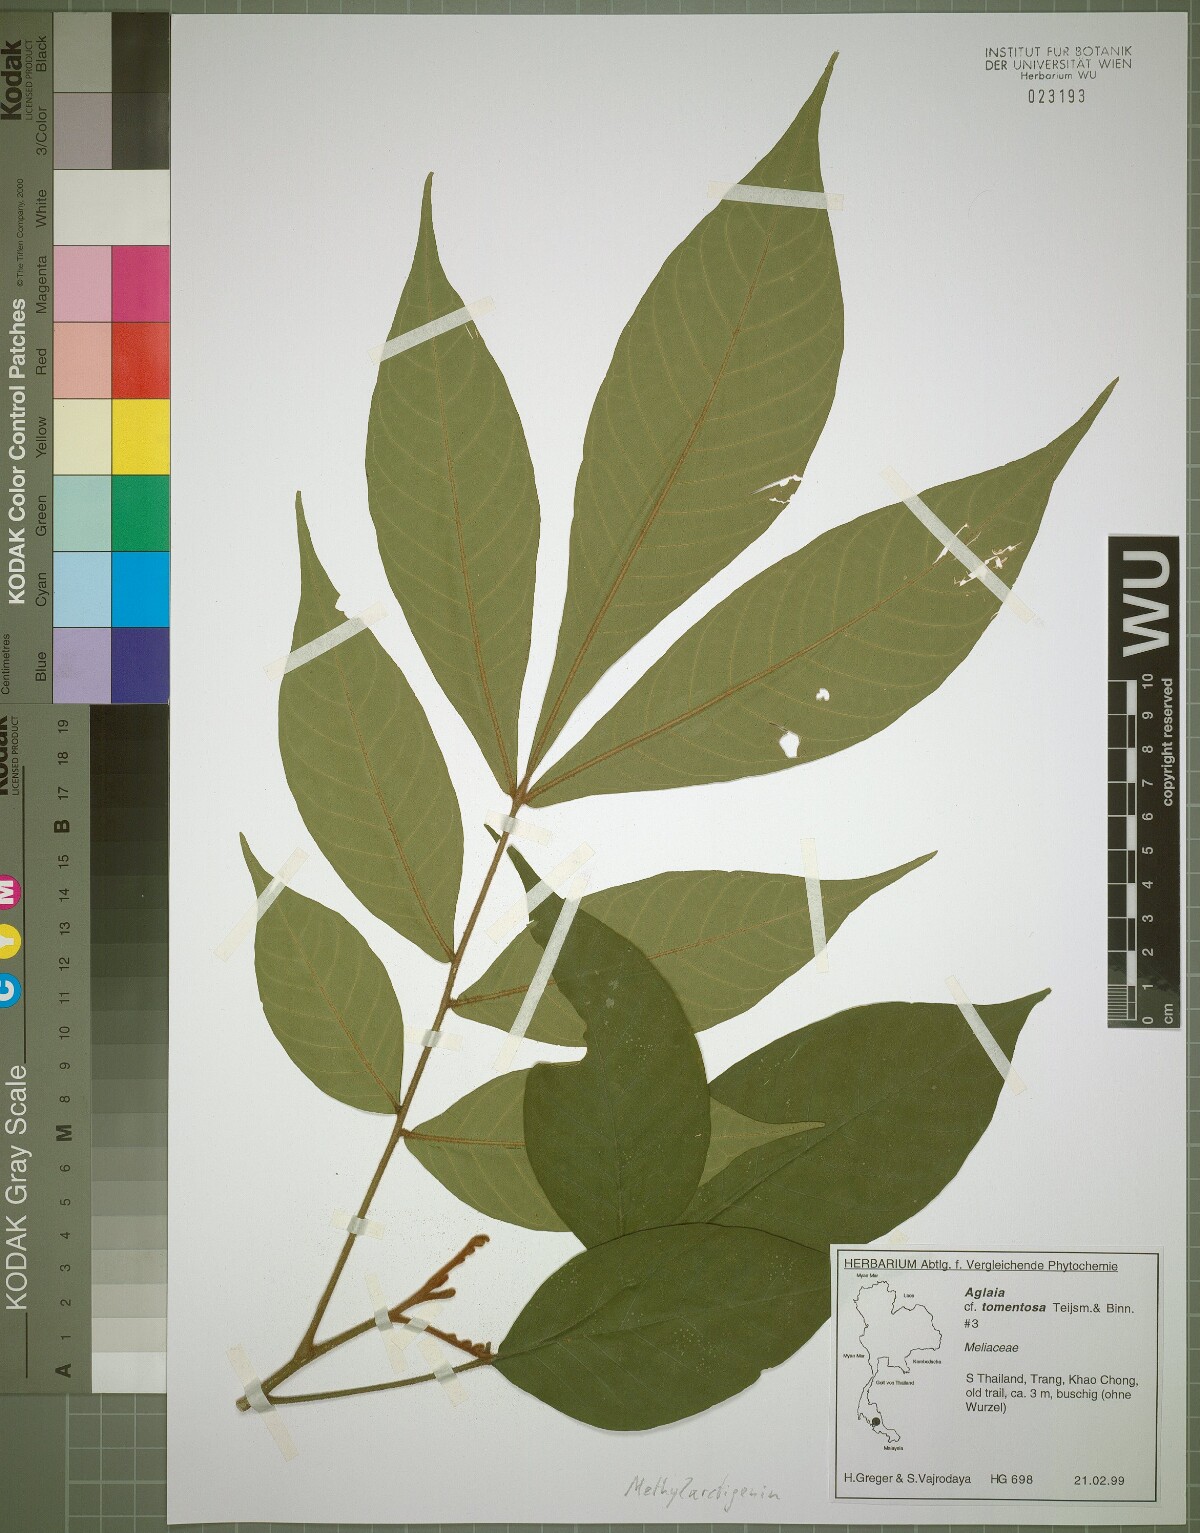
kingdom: Plantae
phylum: Tracheophyta
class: Magnoliopsida
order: Sapindales
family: Meliaceae
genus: Aglaia
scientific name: Aglaia tomentosa
